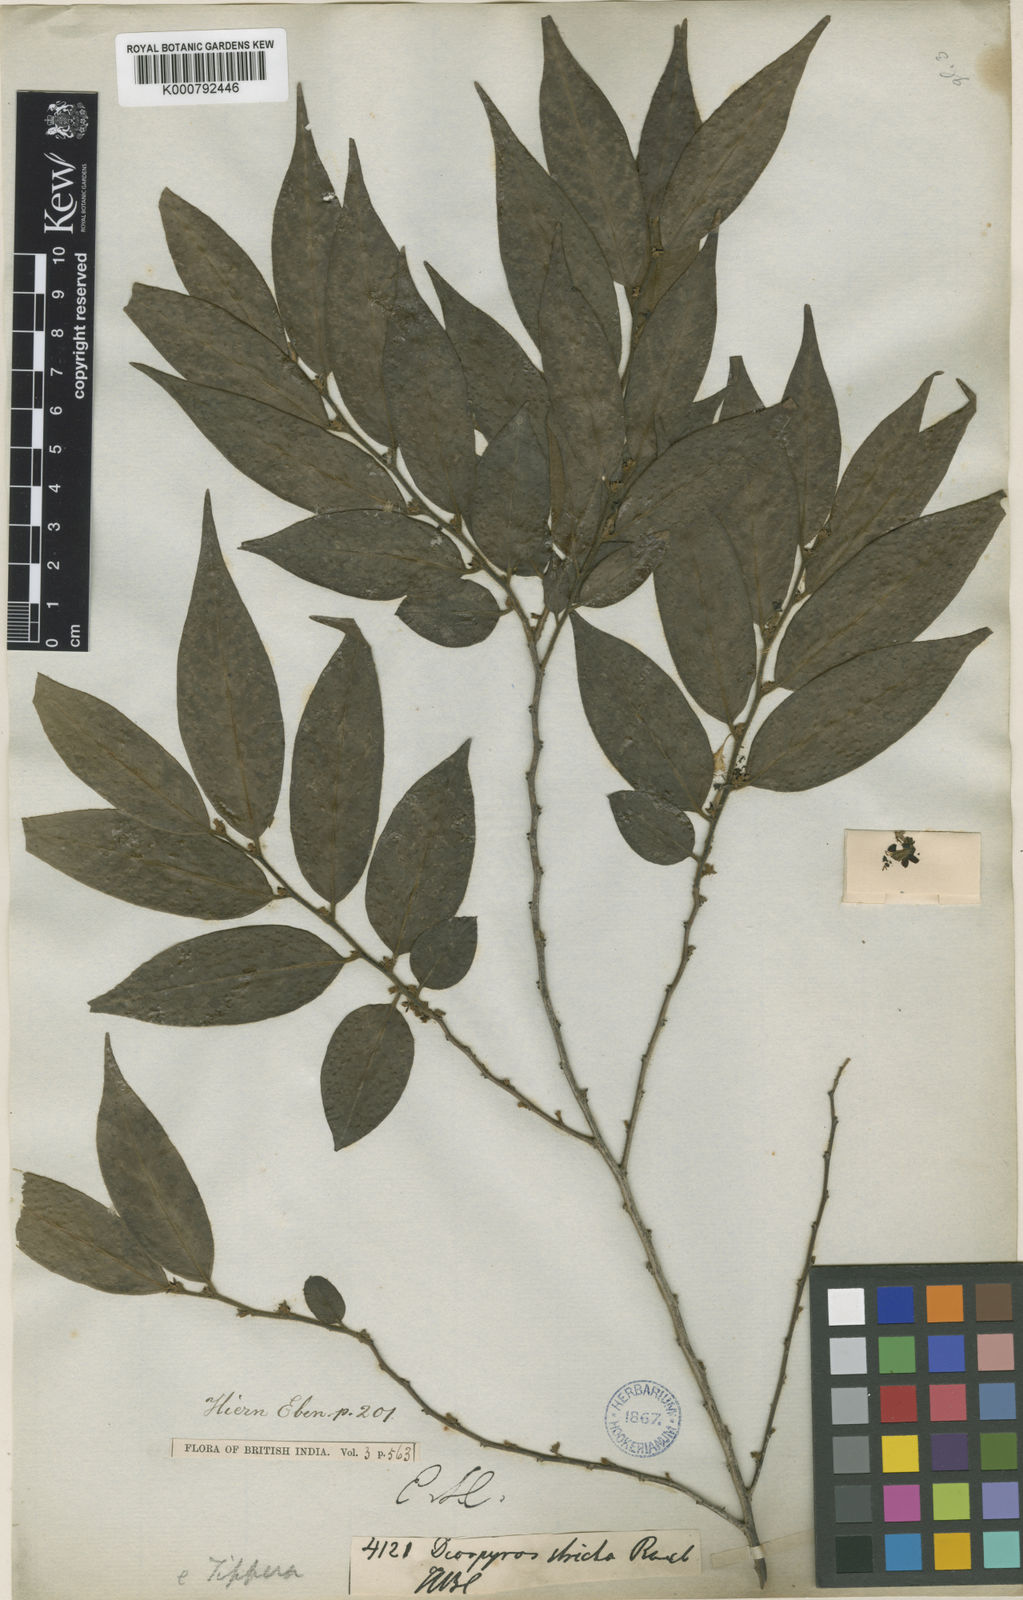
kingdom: Plantae
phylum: Tracheophyta
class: Magnoliopsida
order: Ericales
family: Ebenaceae
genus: Diospyros
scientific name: Diospyros stricta
